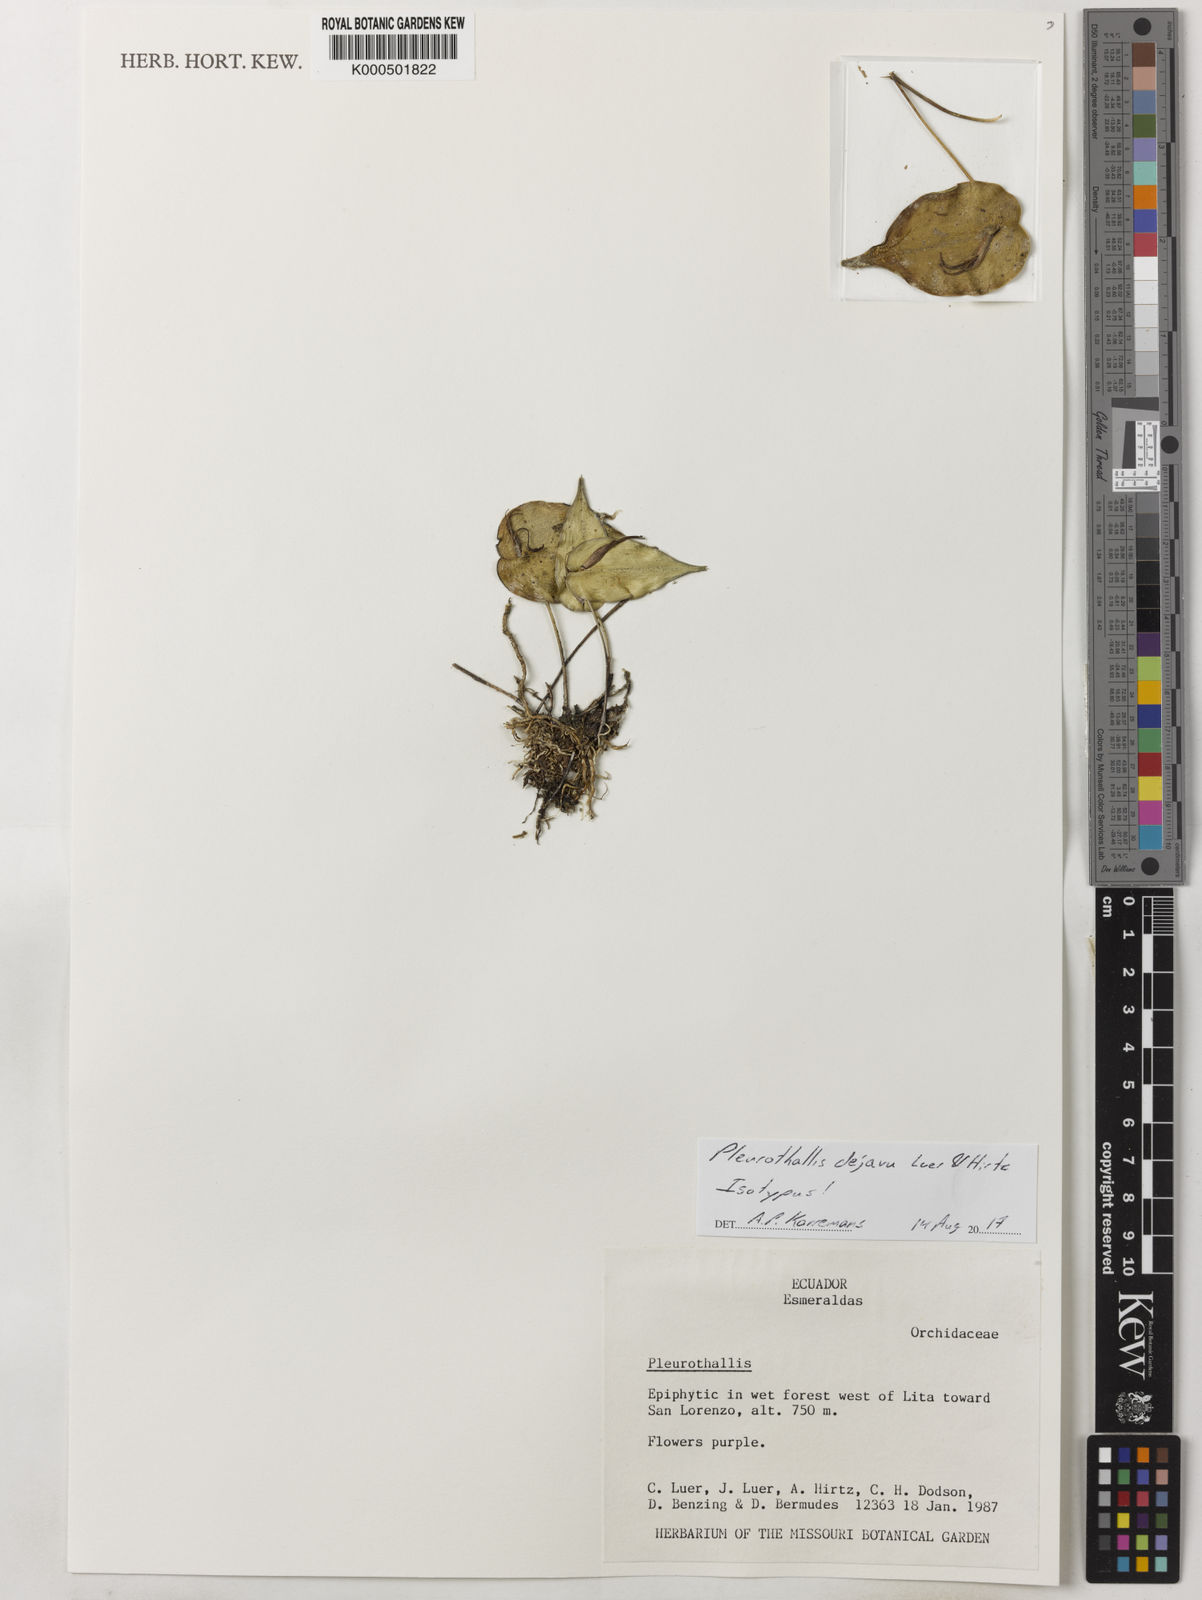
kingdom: Plantae
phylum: Tracheophyta
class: Liliopsida
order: Asparagales
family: Orchidaceae
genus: Pleurothallis
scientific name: Pleurothallis dejavu
